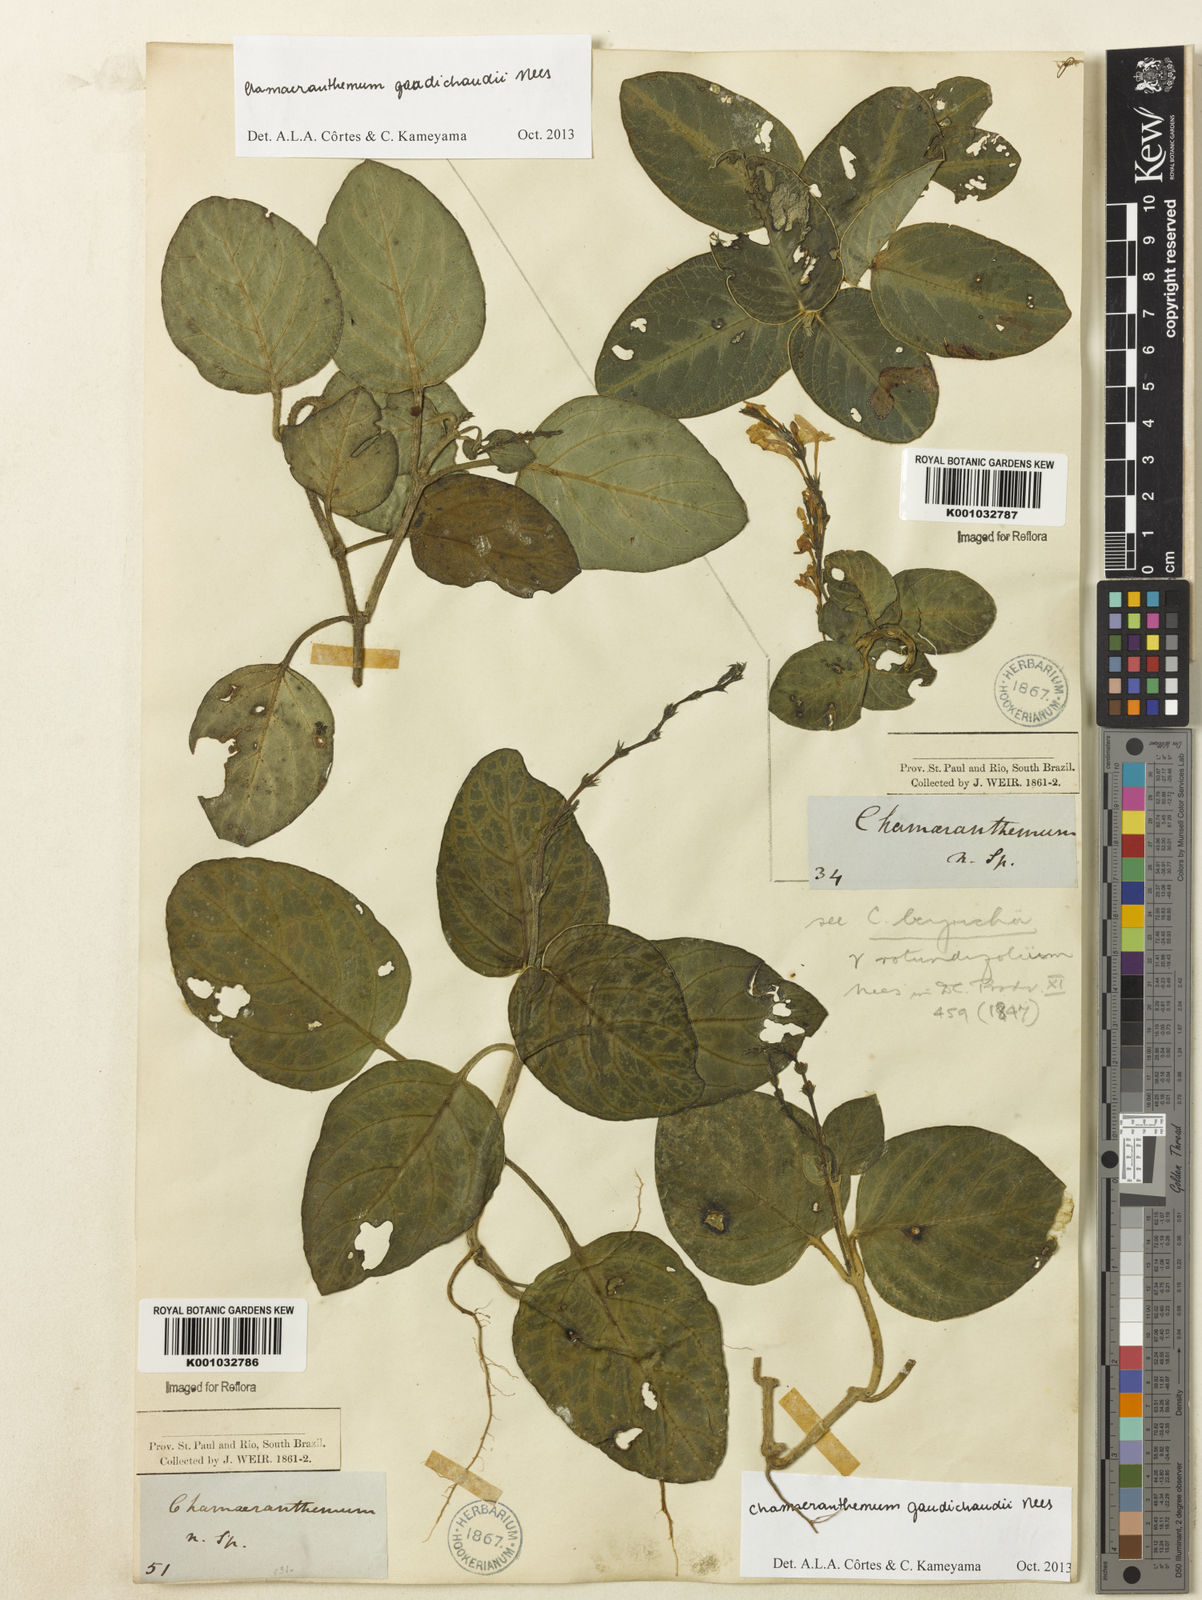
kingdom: Plantae
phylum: Tracheophyta
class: Magnoliopsida
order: Lamiales
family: Acanthaceae
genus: Chamaeranthemum
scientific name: Chamaeranthemum beyrichii
